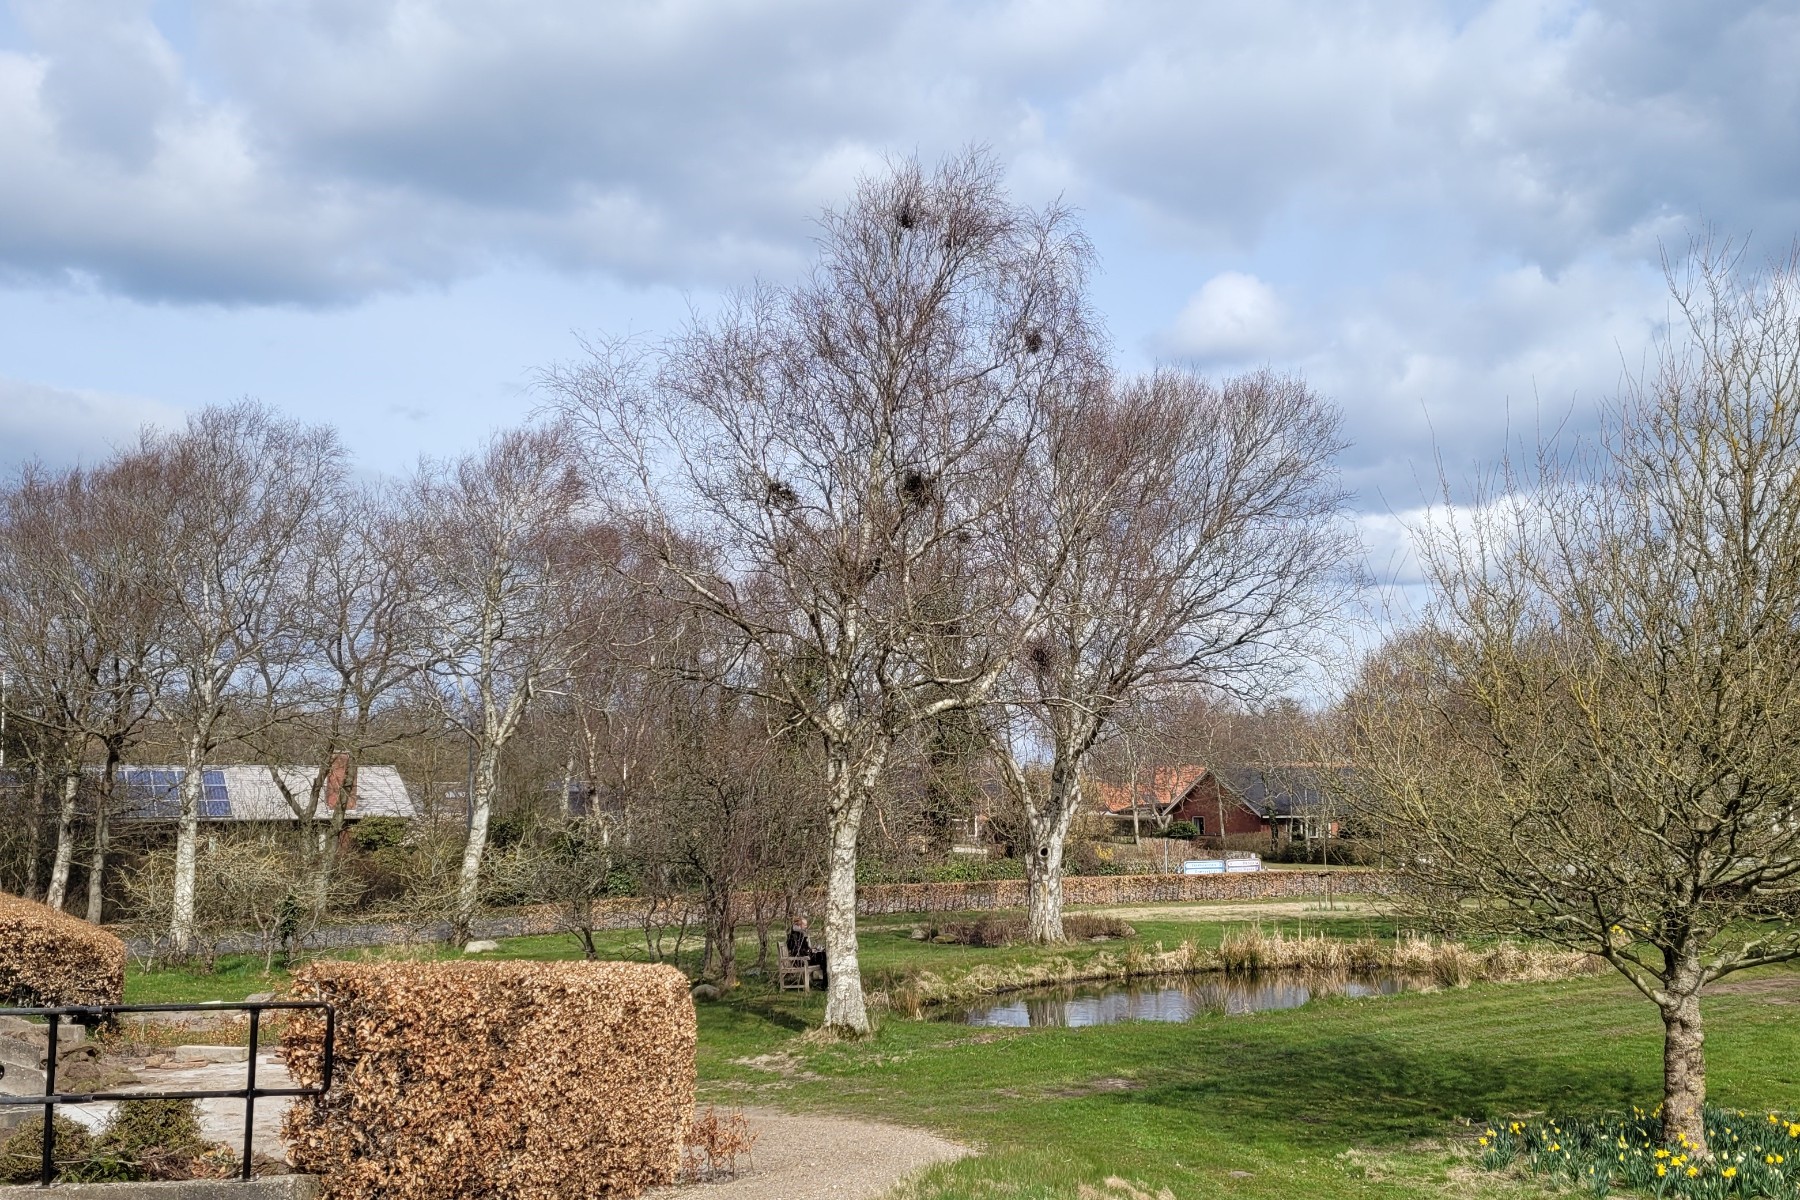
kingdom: Fungi
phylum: Ascomycota
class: Taphrinomycetes
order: Taphrinales
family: Taphrinaceae
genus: Taphrina
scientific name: Taphrina betulina
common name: hekse-sækdug
